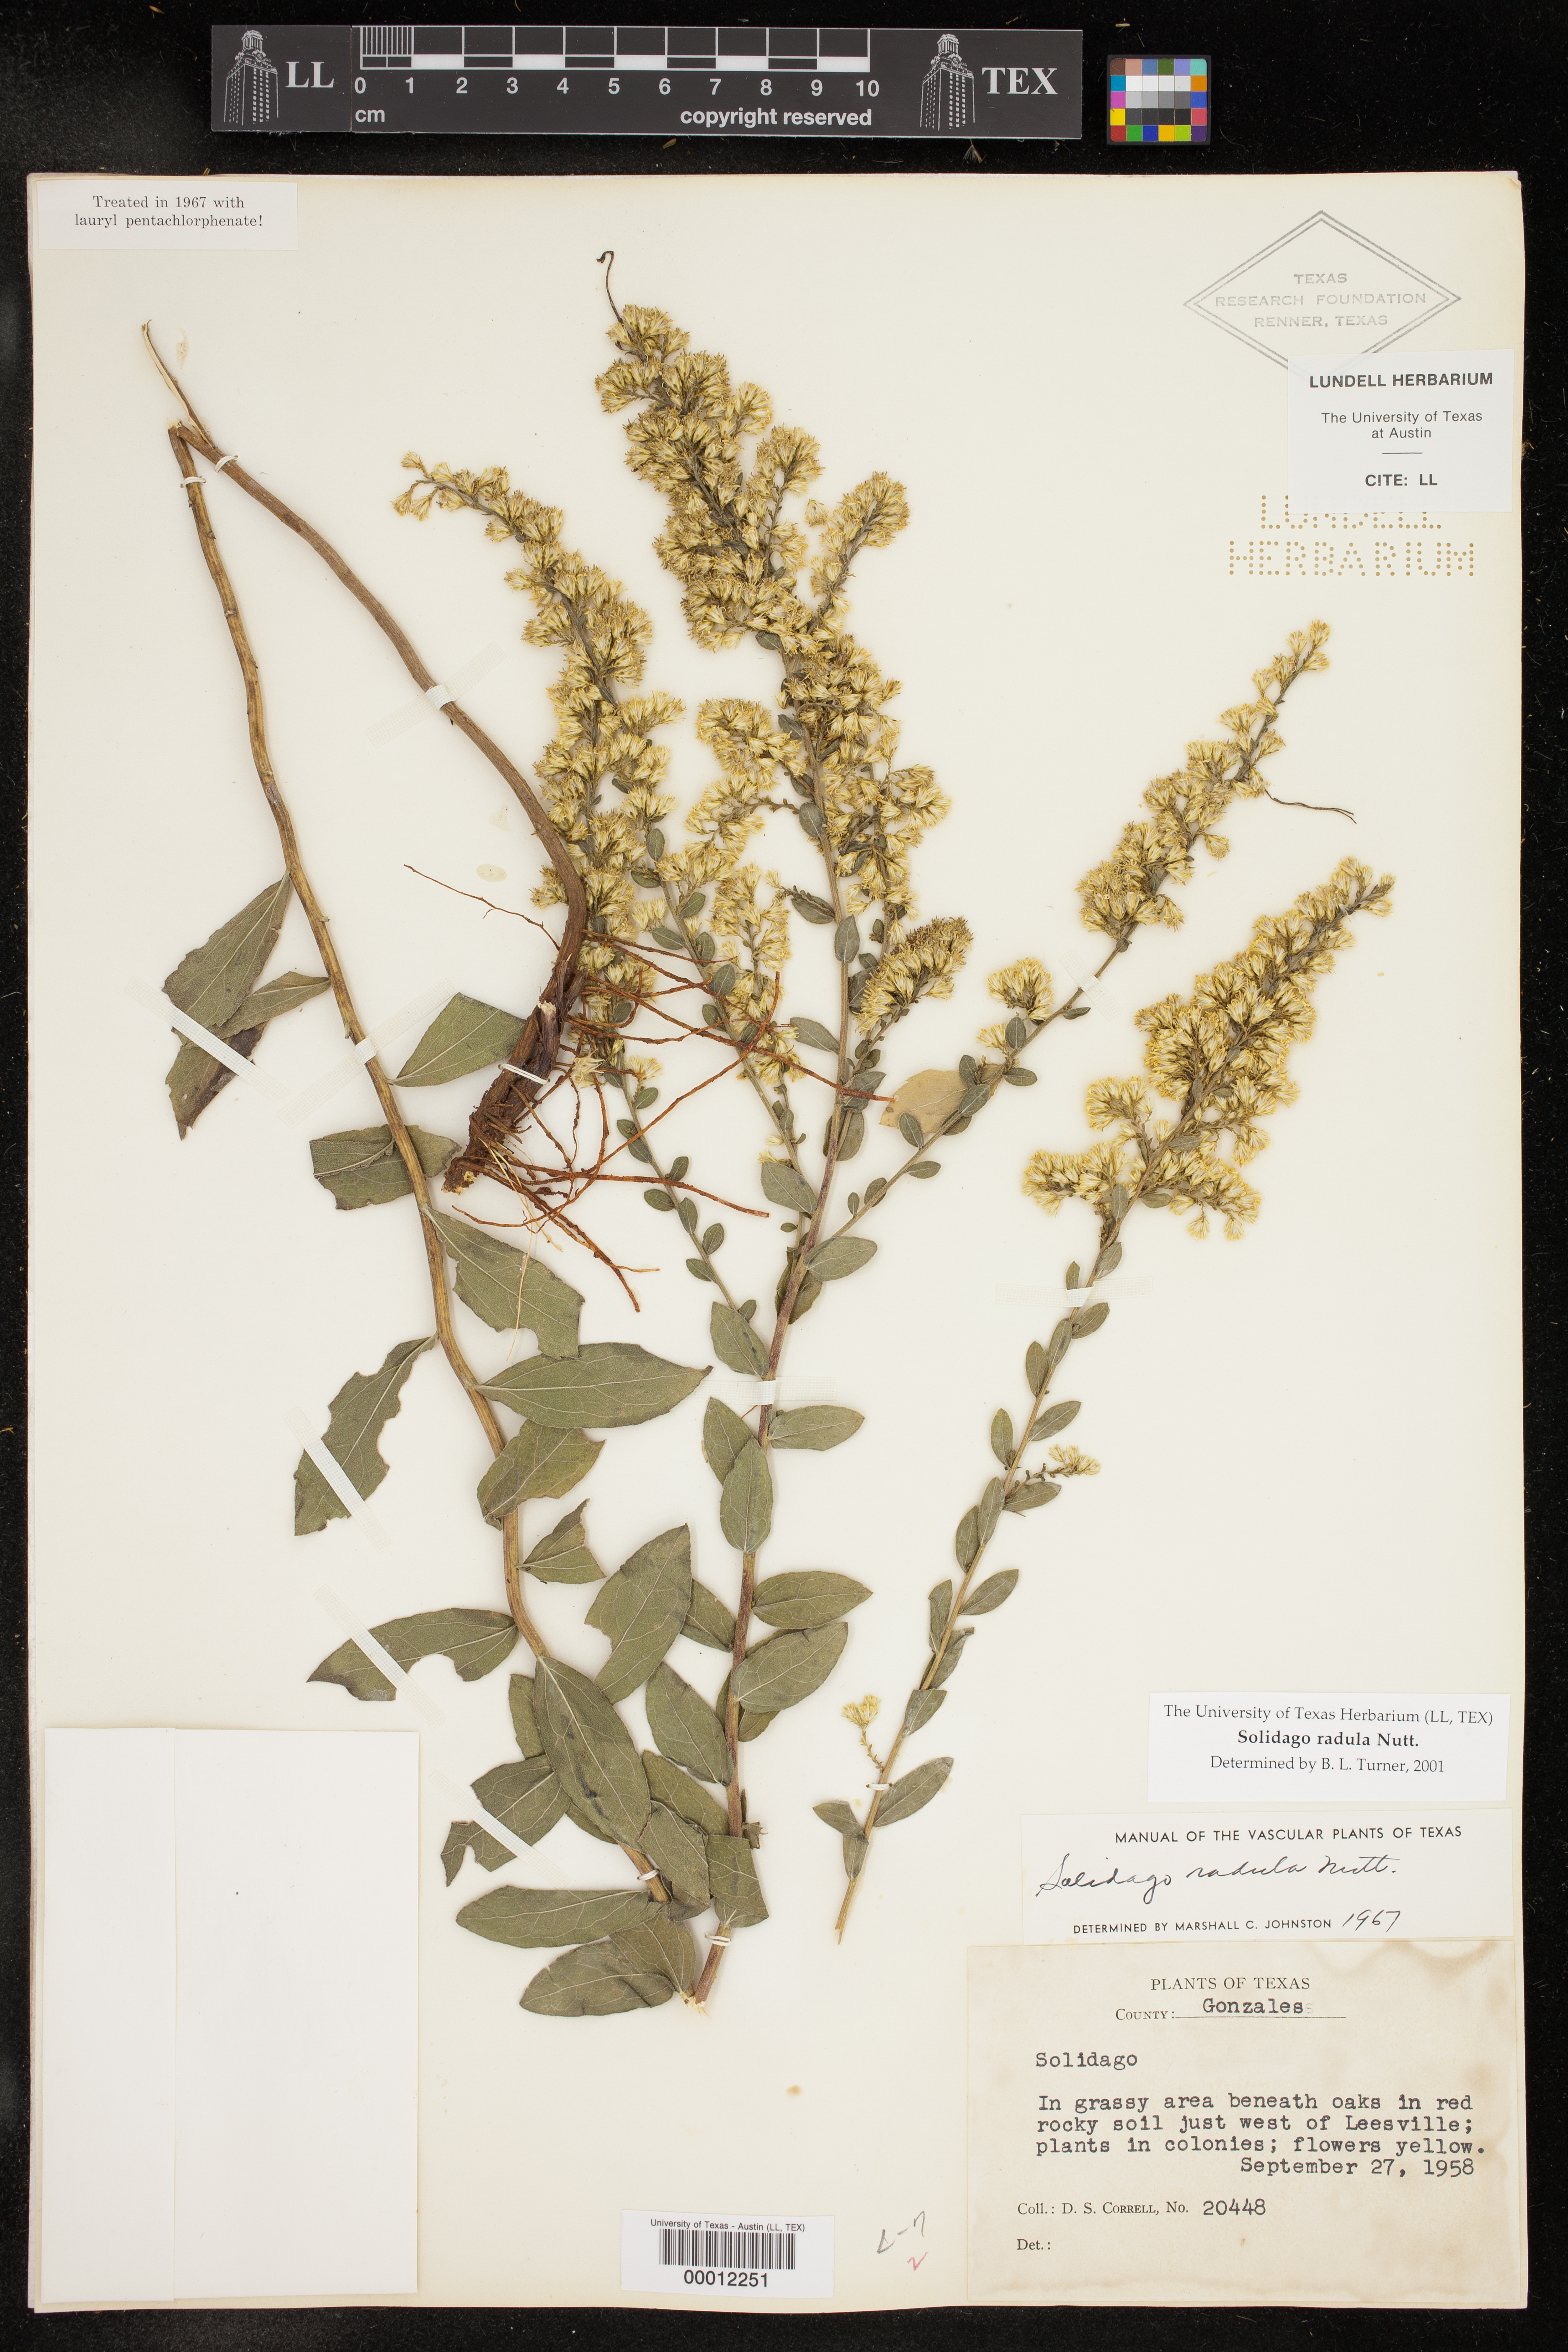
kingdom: Plantae
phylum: Tracheophyta
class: Magnoliopsida
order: Asterales
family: Asteraceae
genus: Solidago
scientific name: Solidago radula
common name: Western rough goldenrod
